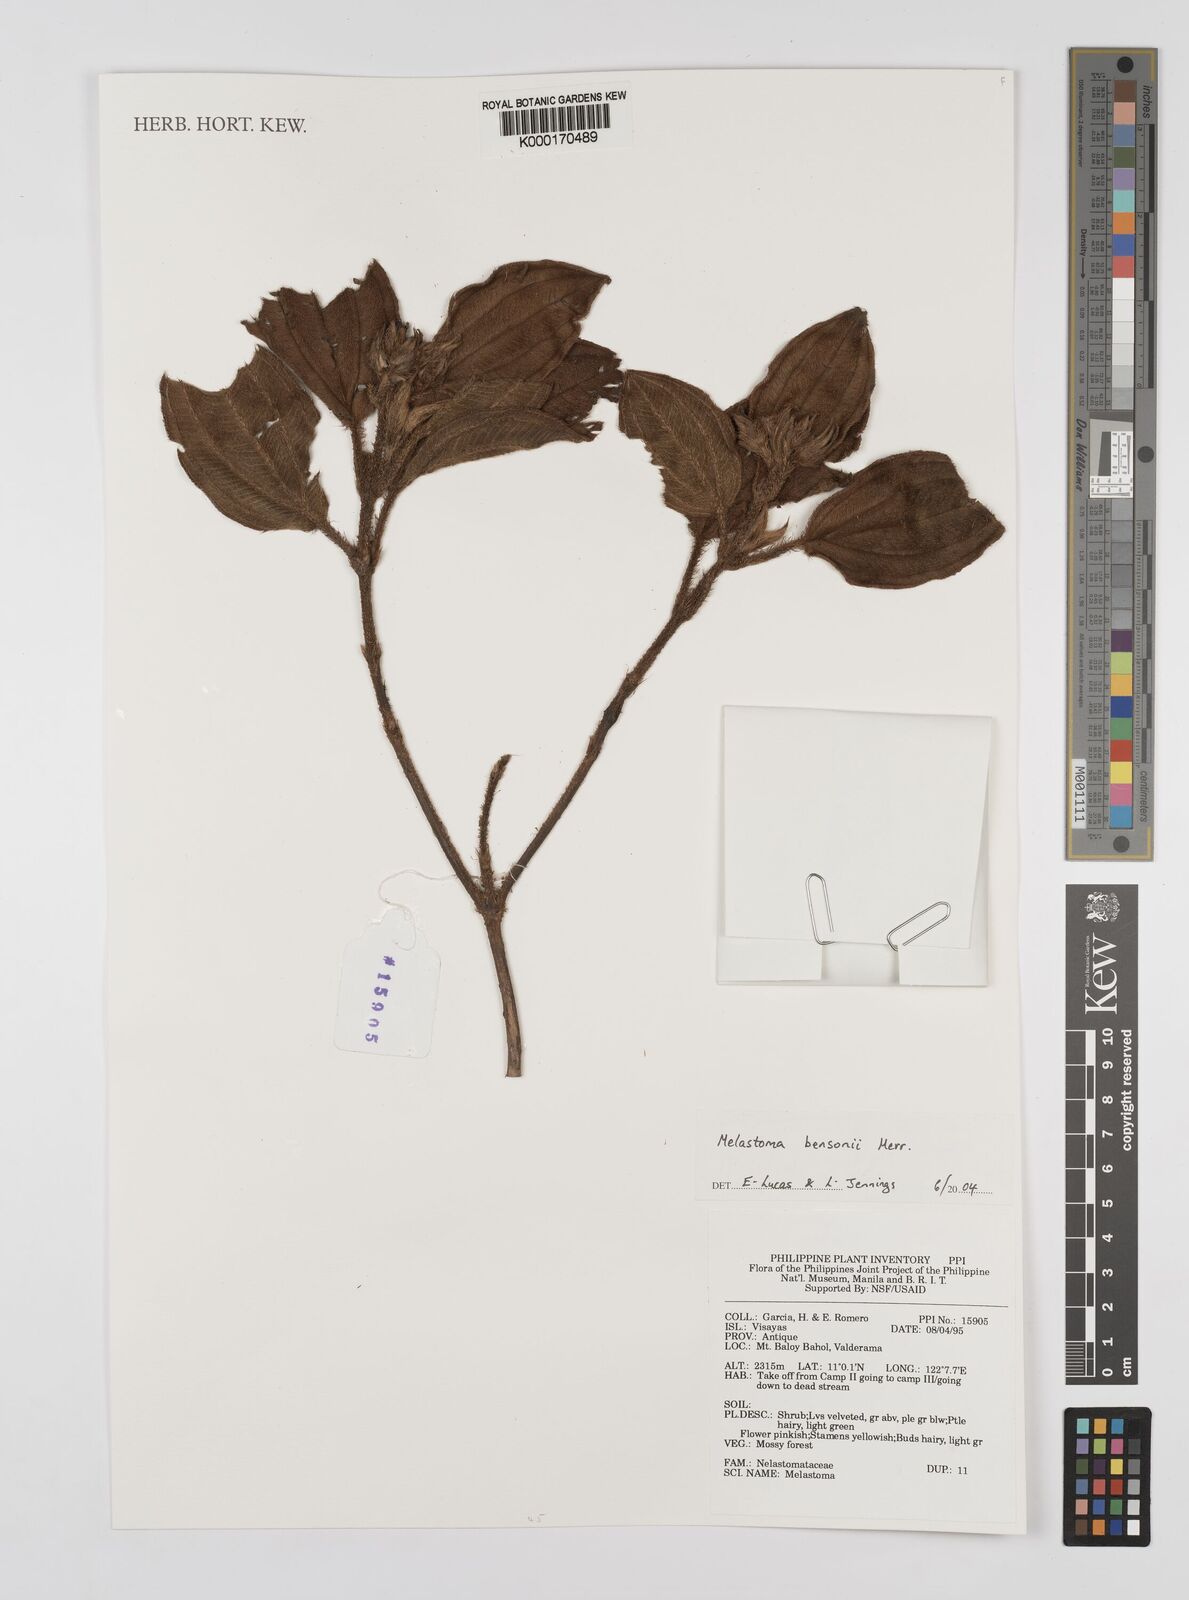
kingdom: Plantae
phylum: Tracheophyta
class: Magnoliopsida
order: Myrtales
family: Melastomataceae
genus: Melastoma
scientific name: Melastoma bensonii
